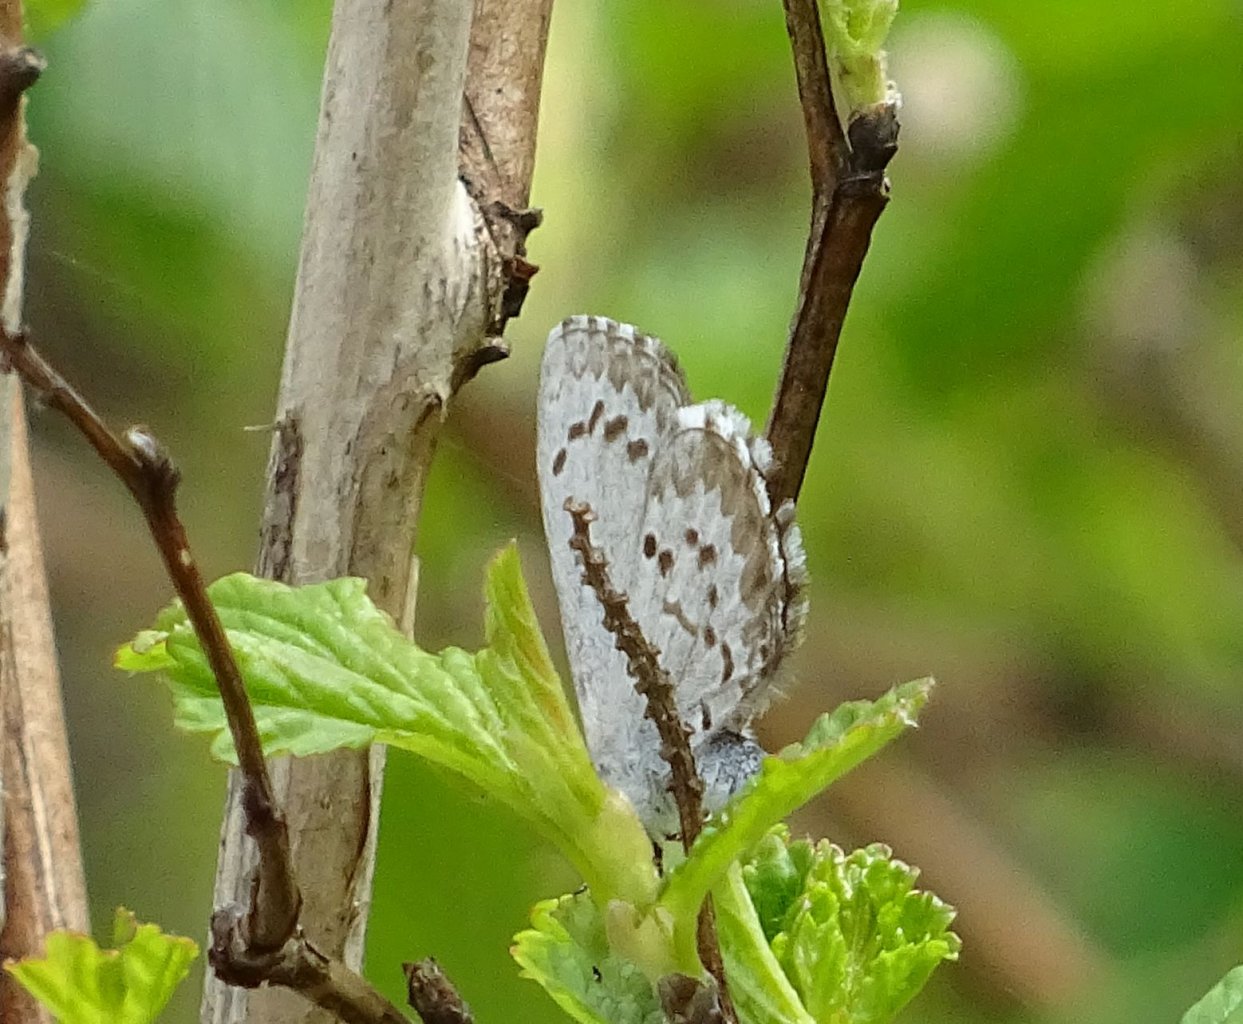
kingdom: Animalia
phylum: Arthropoda
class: Insecta
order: Lepidoptera
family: Lycaenidae
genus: Celastrina
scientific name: Celastrina lucia
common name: Northern Spring Azure
